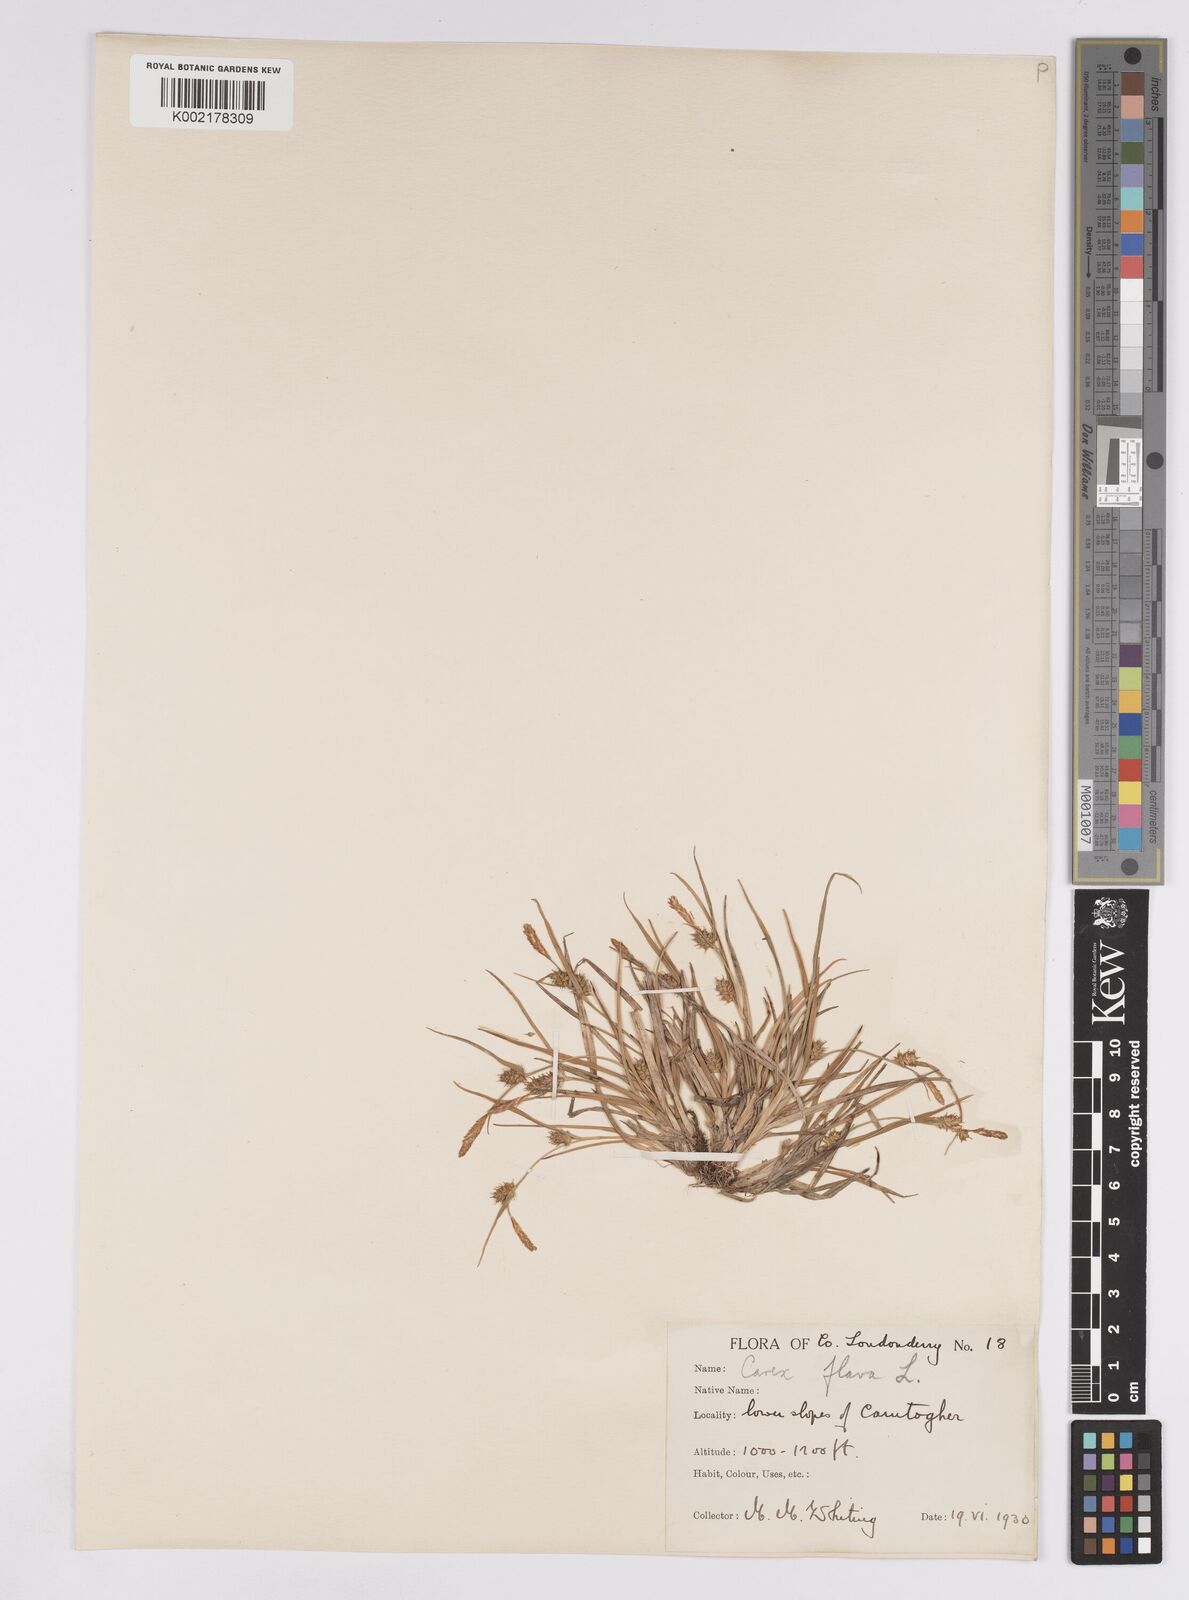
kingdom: Plantae
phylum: Tracheophyta
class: Liliopsida
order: Poales
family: Cyperaceae
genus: Carex
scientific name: Carex demissa
